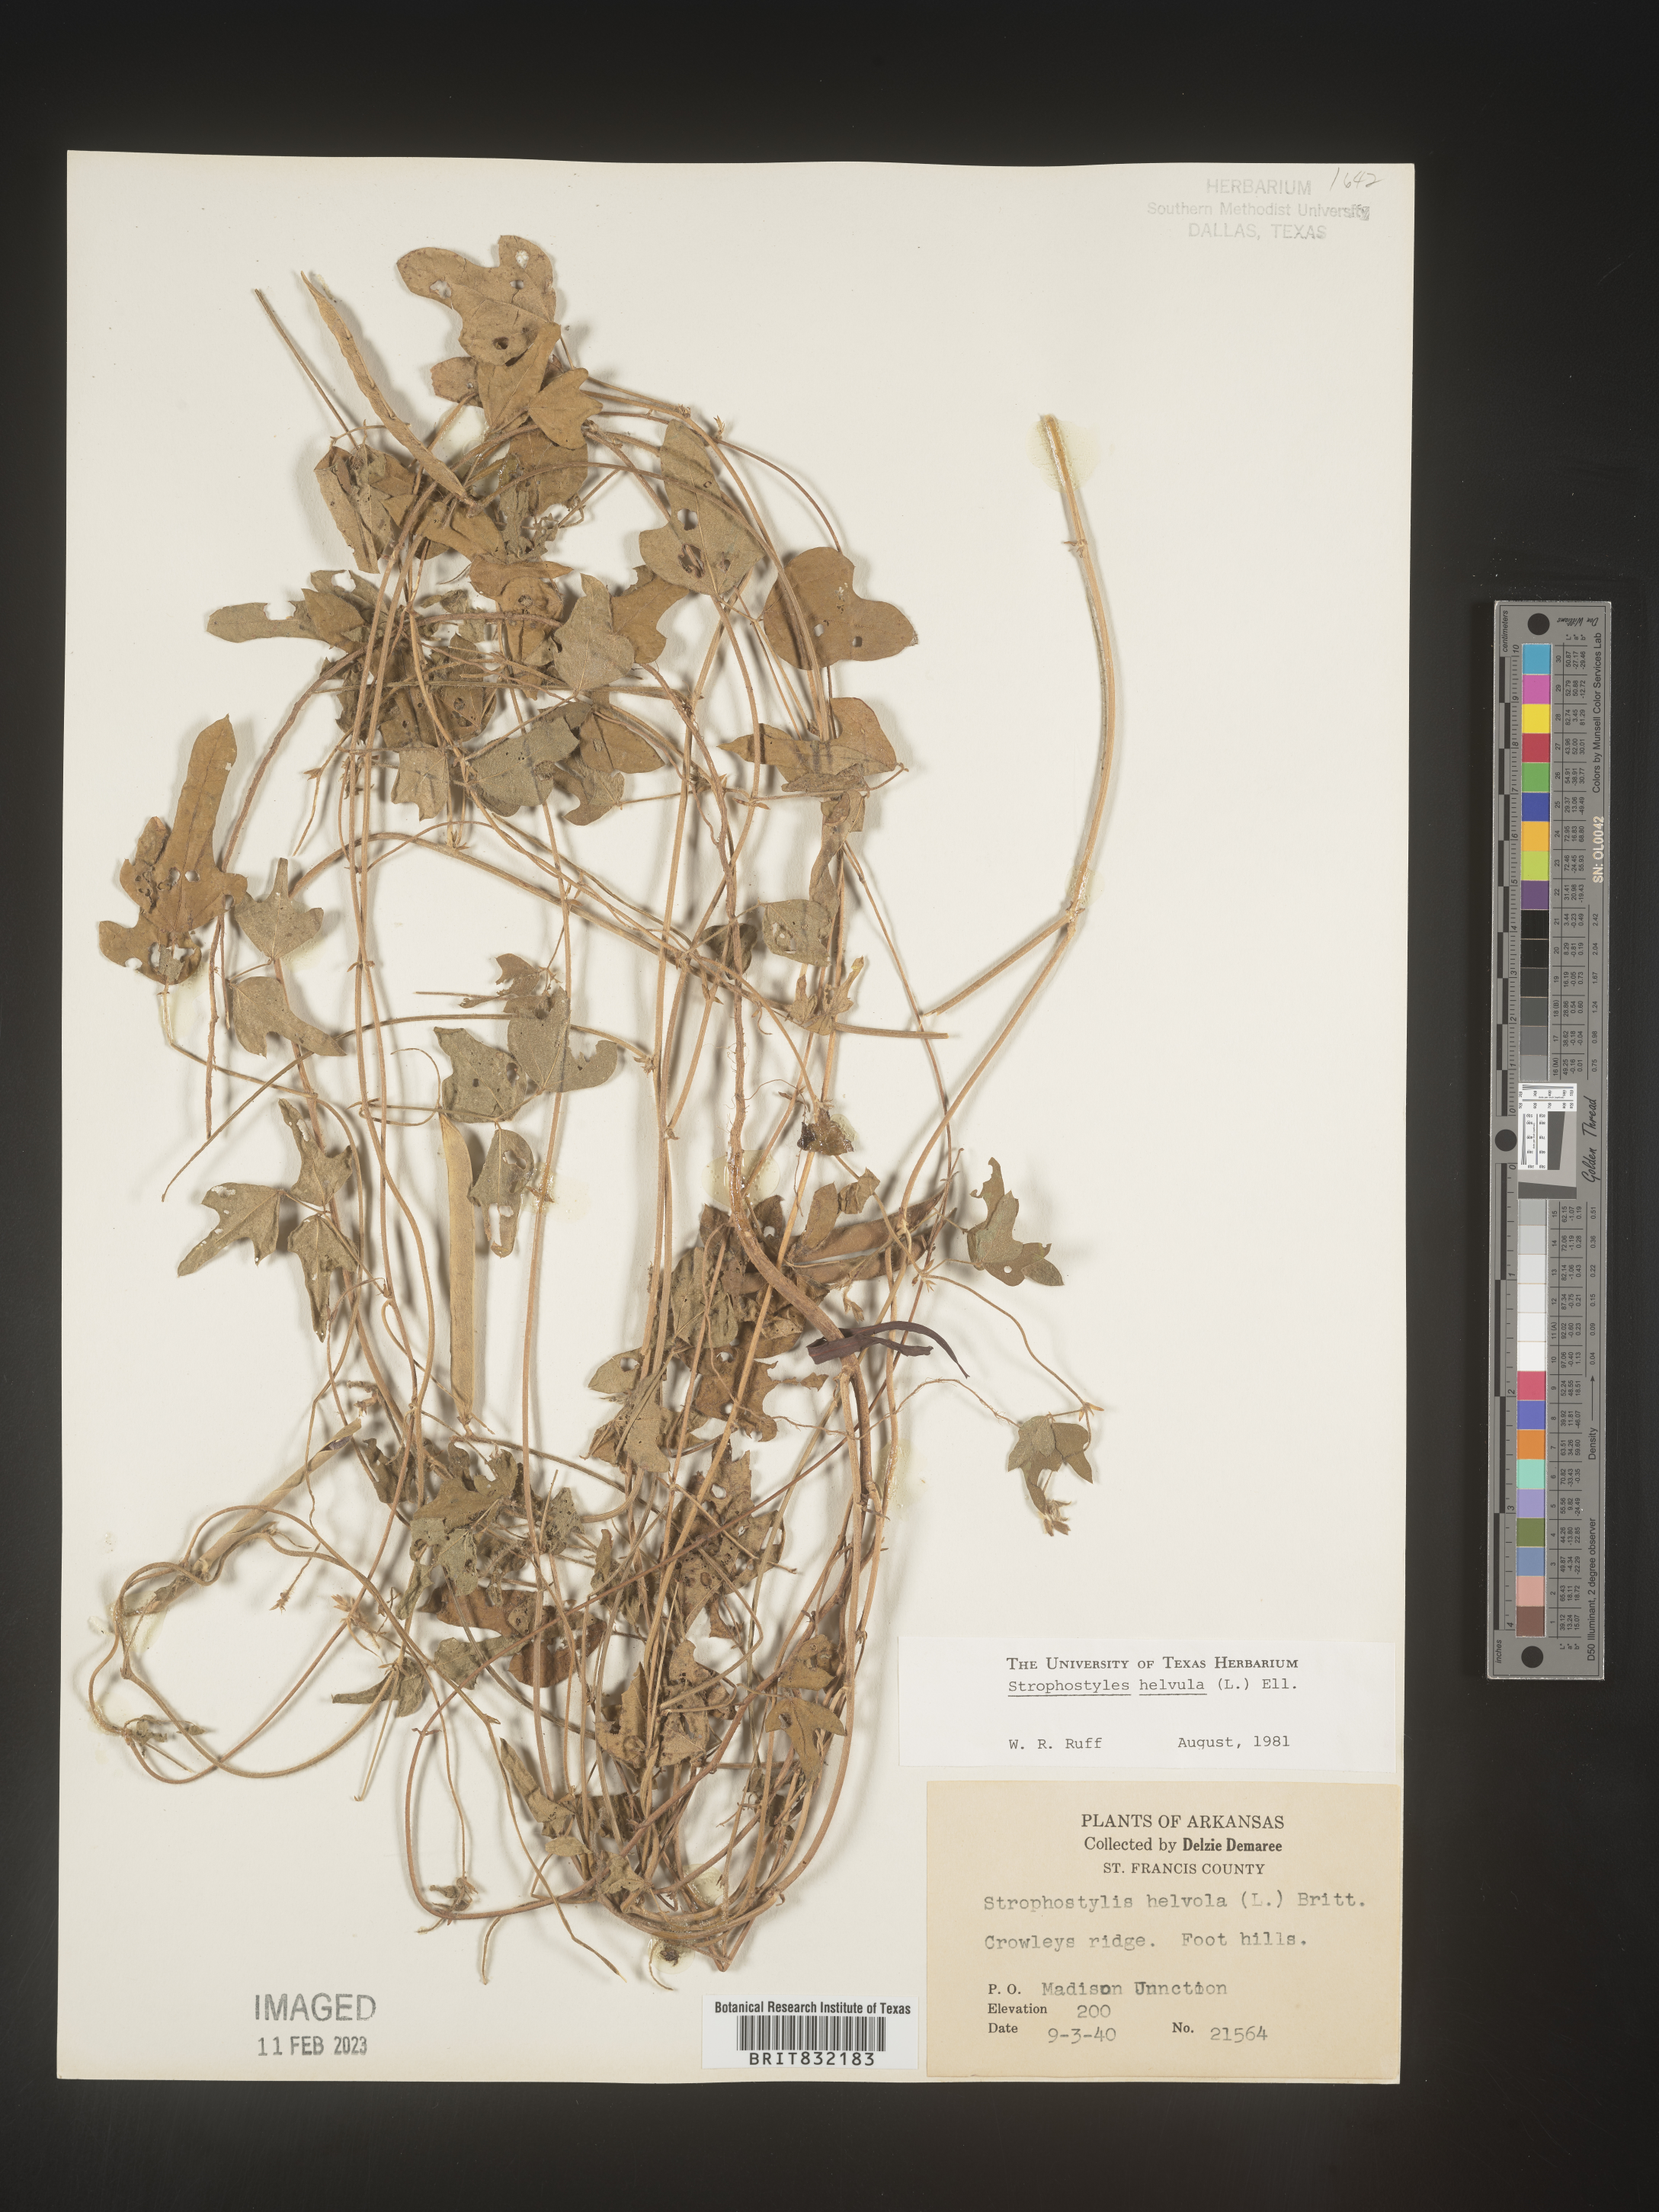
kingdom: Plantae
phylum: Tracheophyta
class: Magnoliopsida
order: Fabales
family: Fabaceae
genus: Strophostyles
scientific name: Strophostyles helvola
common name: Trailing wild bean
